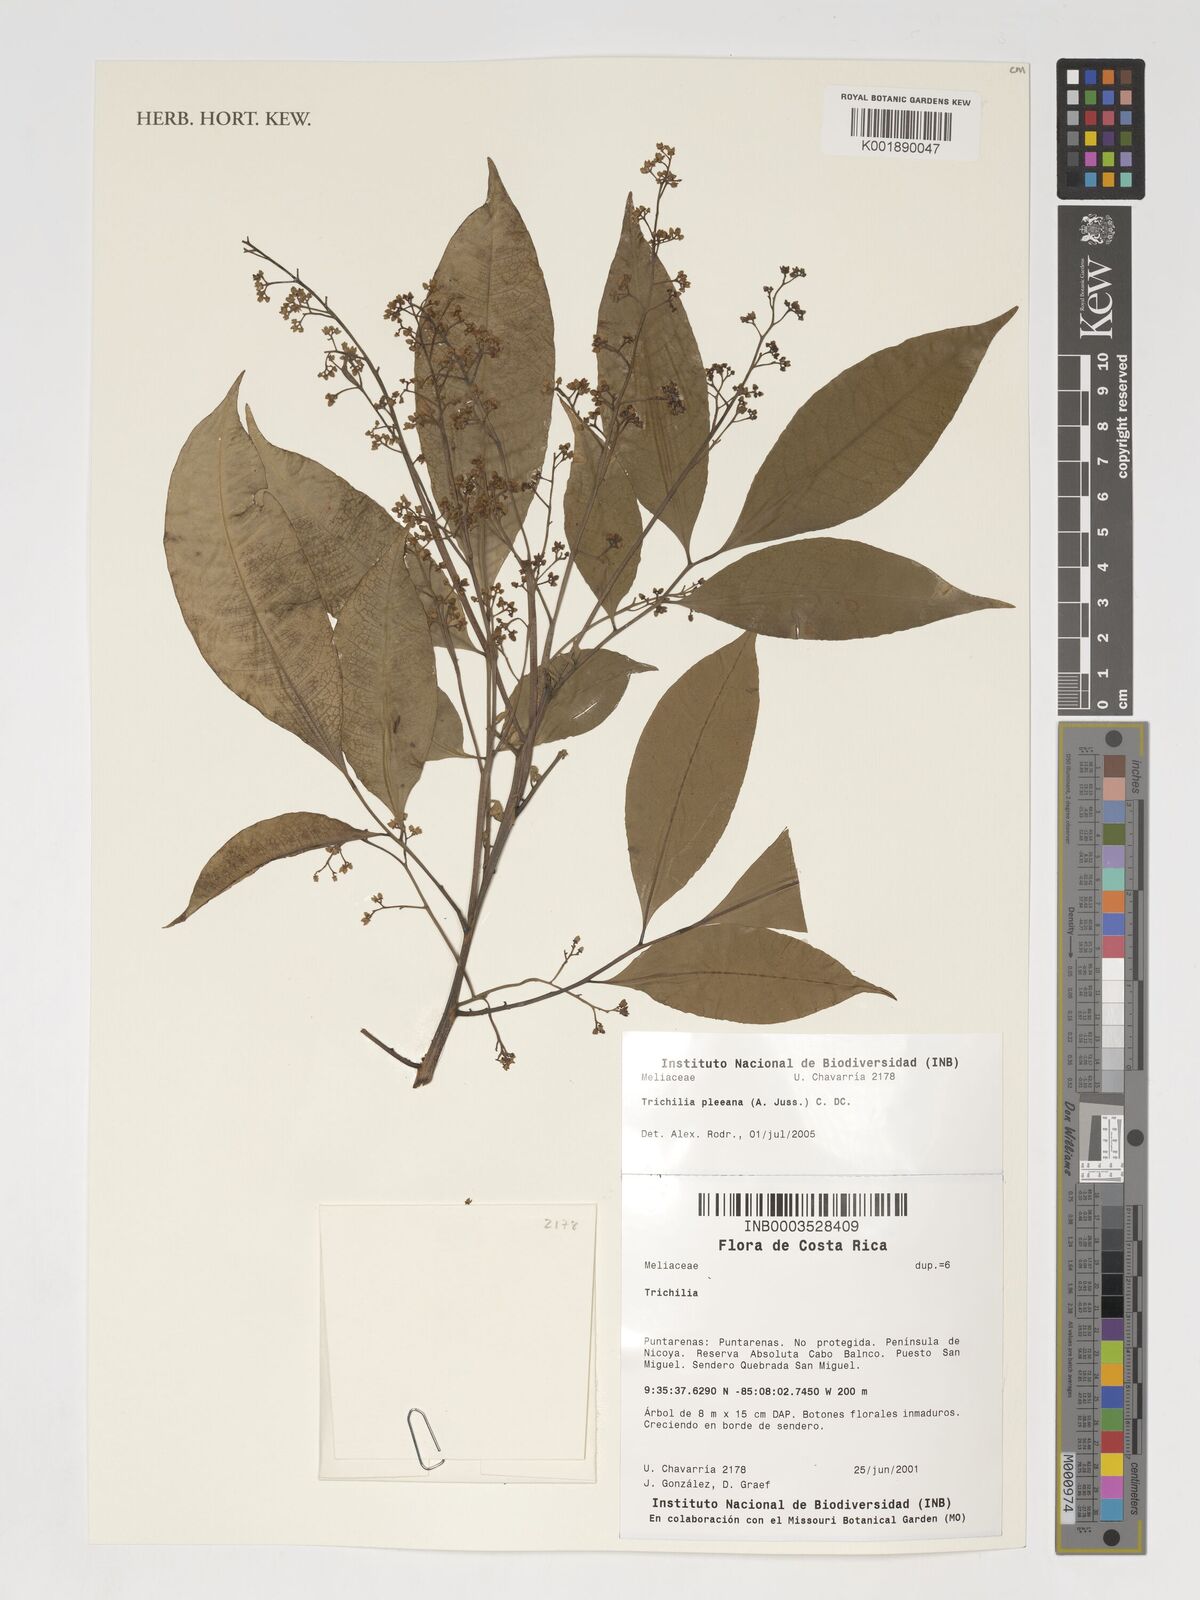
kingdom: Plantae
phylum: Tracheophyta
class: Magnoliopsida
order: Sapindales
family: Meliaceae
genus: Trichilia
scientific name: Trichilia pleeana
